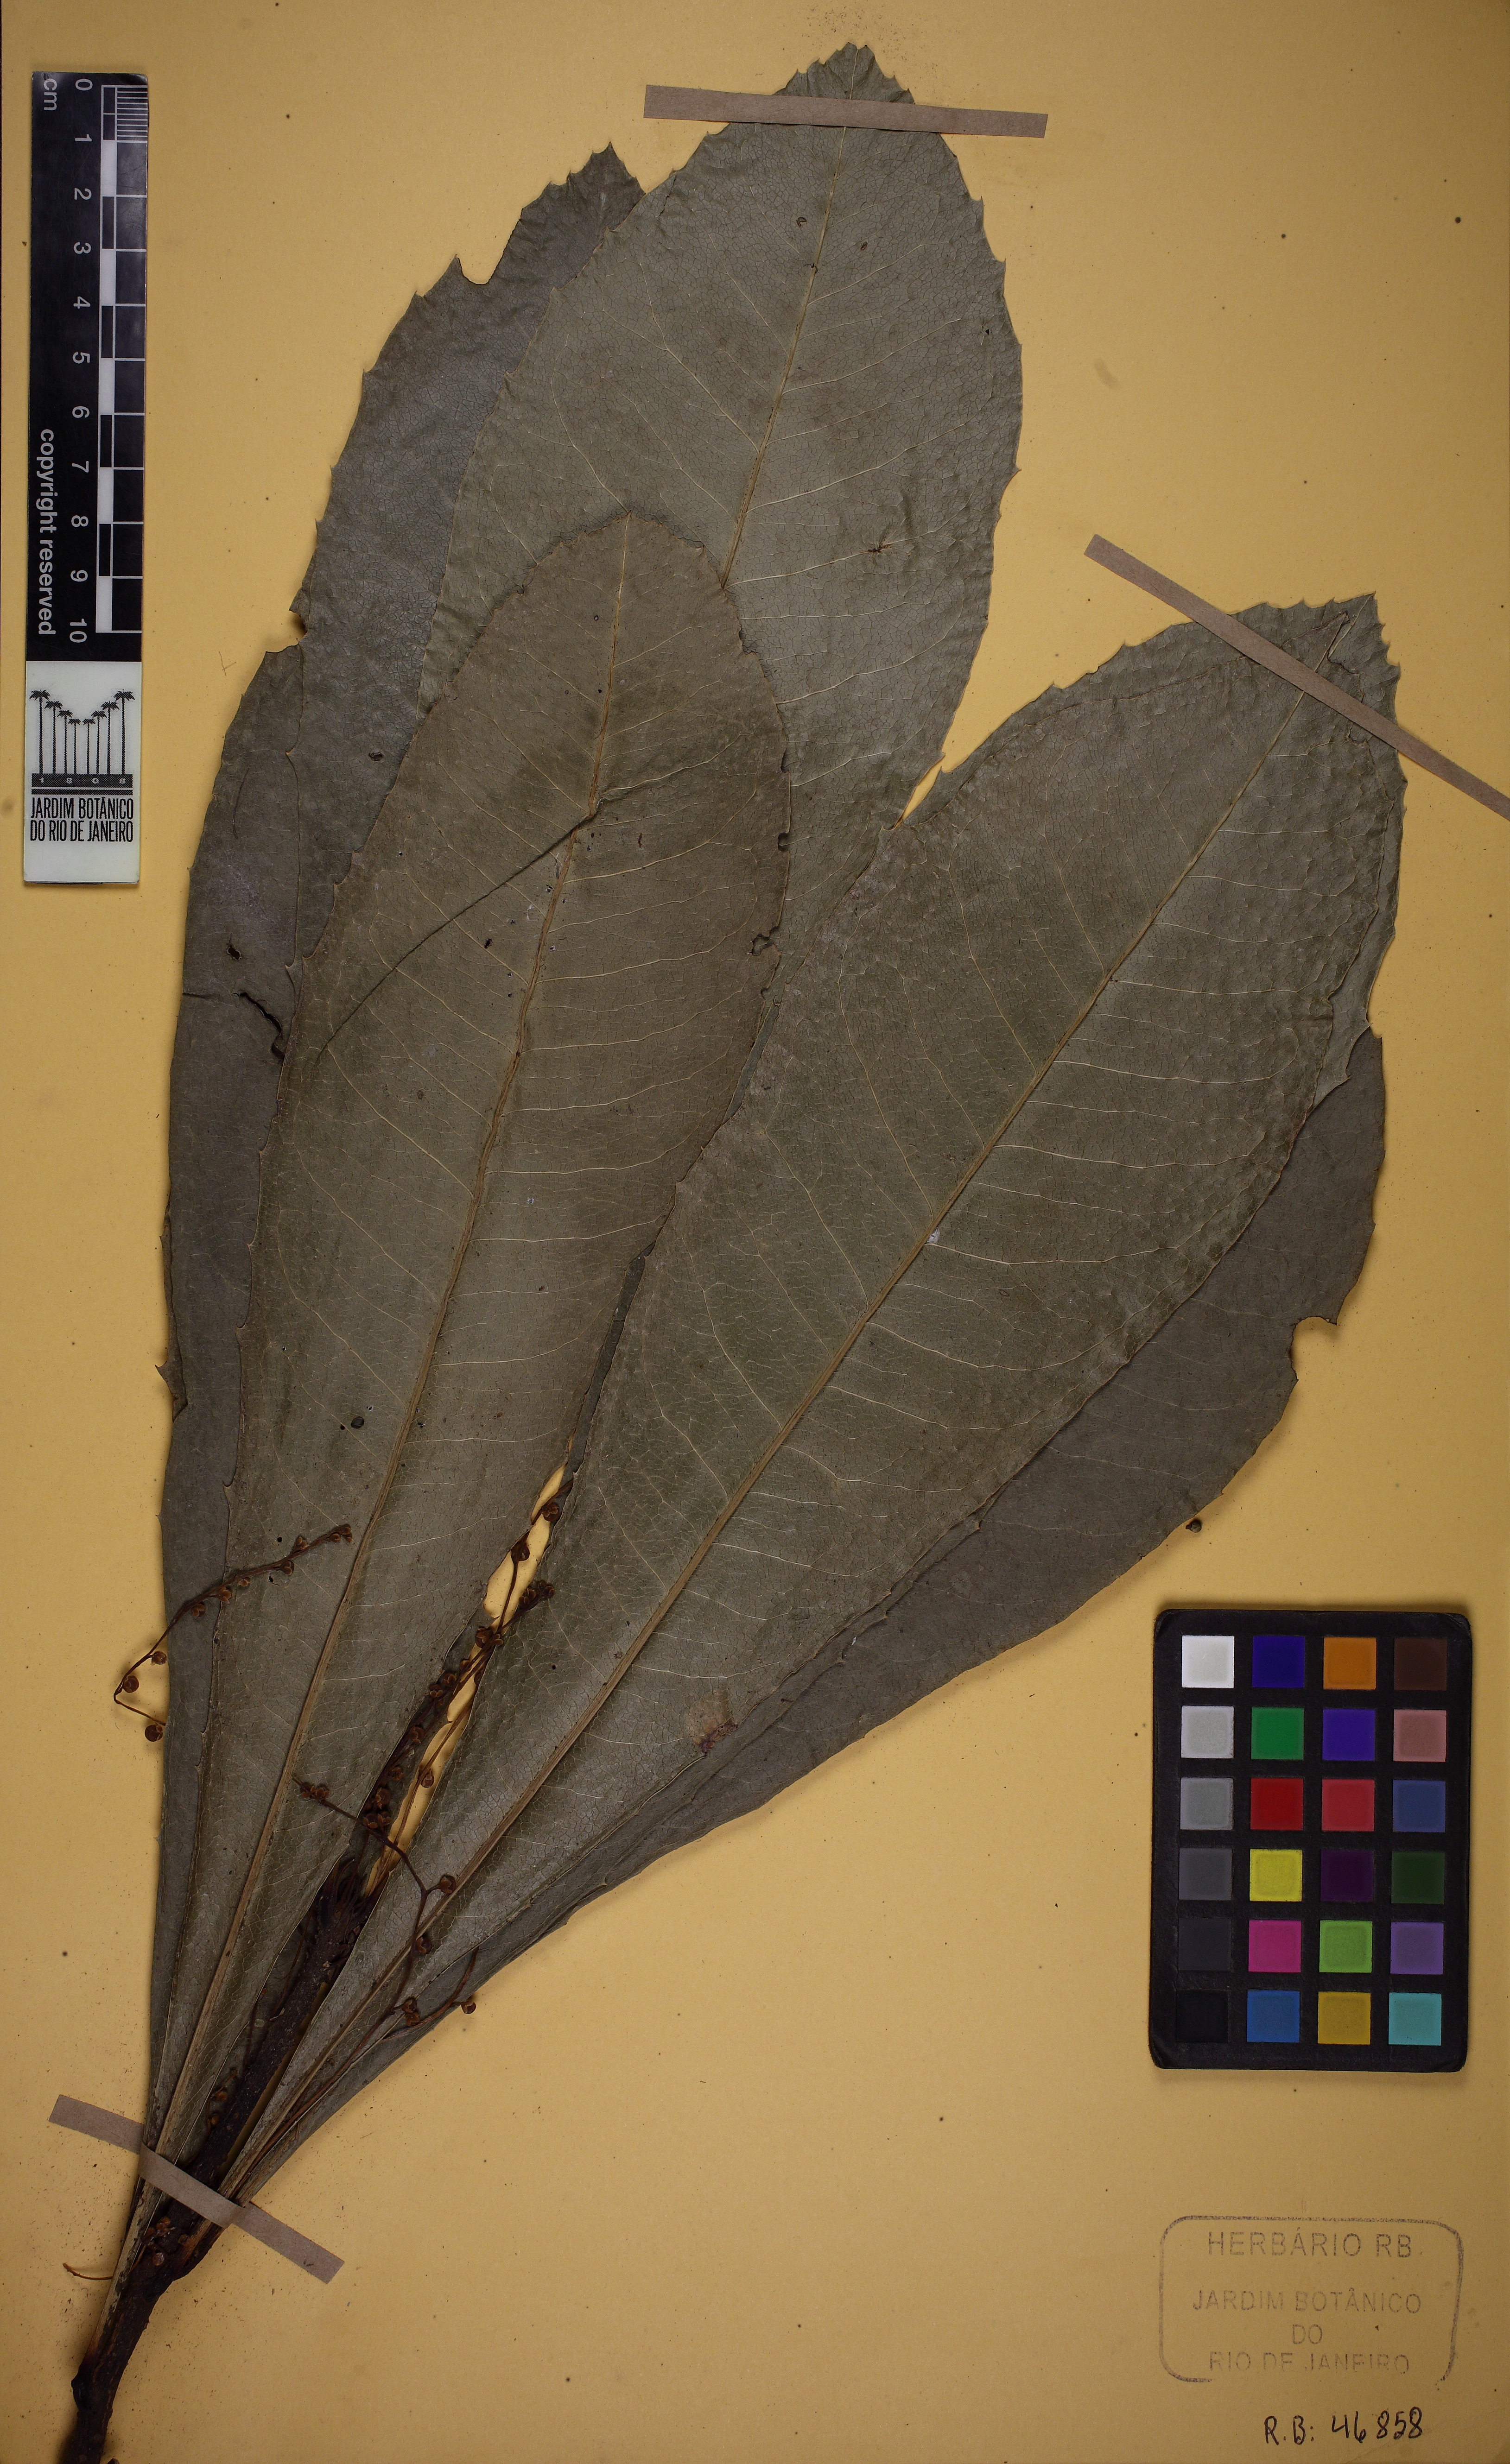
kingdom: Plantae
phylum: Tracheophyta
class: Magnoliopsida
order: Ericales
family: Primulaceae
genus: Clavija
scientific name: Clavija
